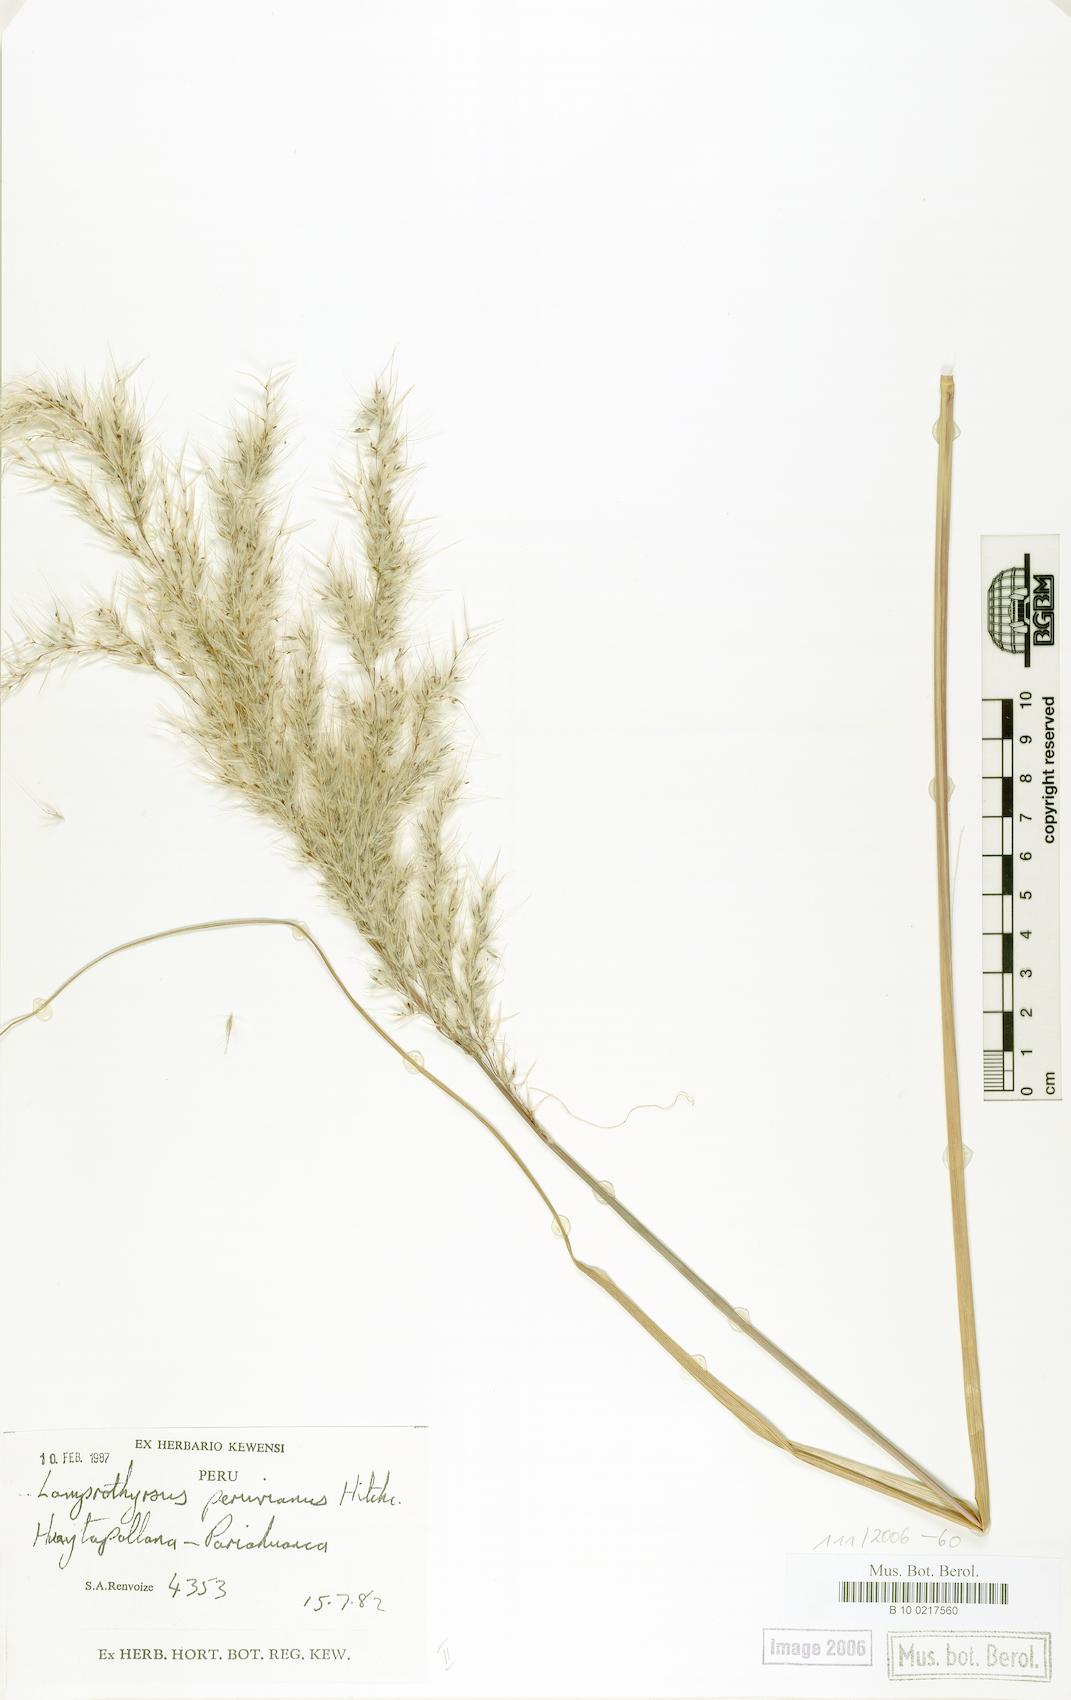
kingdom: Plantae
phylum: Tracheophyta
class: Liliopsida
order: Poales
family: Poaceae
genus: Cortaderia
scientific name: Cortaderia bifida
